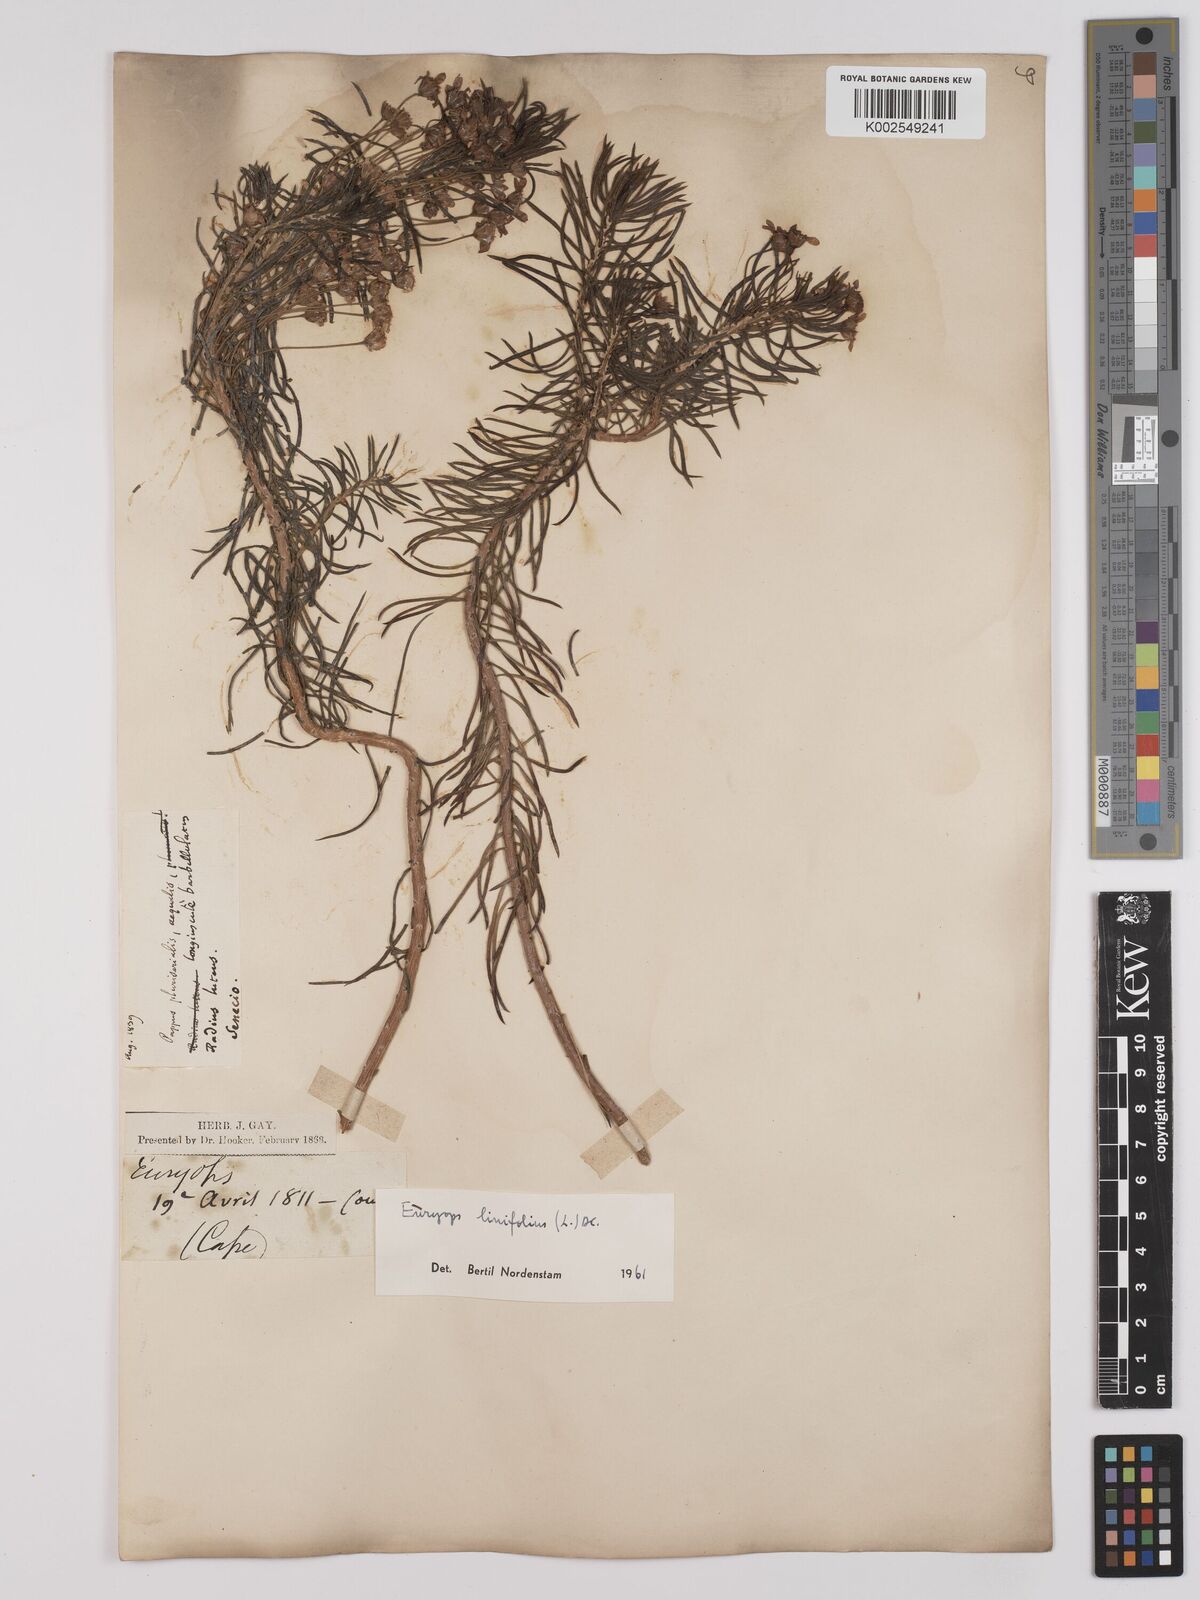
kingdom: Plantae
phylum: Tracheophyta
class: Magnoliopsida
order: Asterales
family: Asteraceae
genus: Euryops
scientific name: Euryops linifolius
